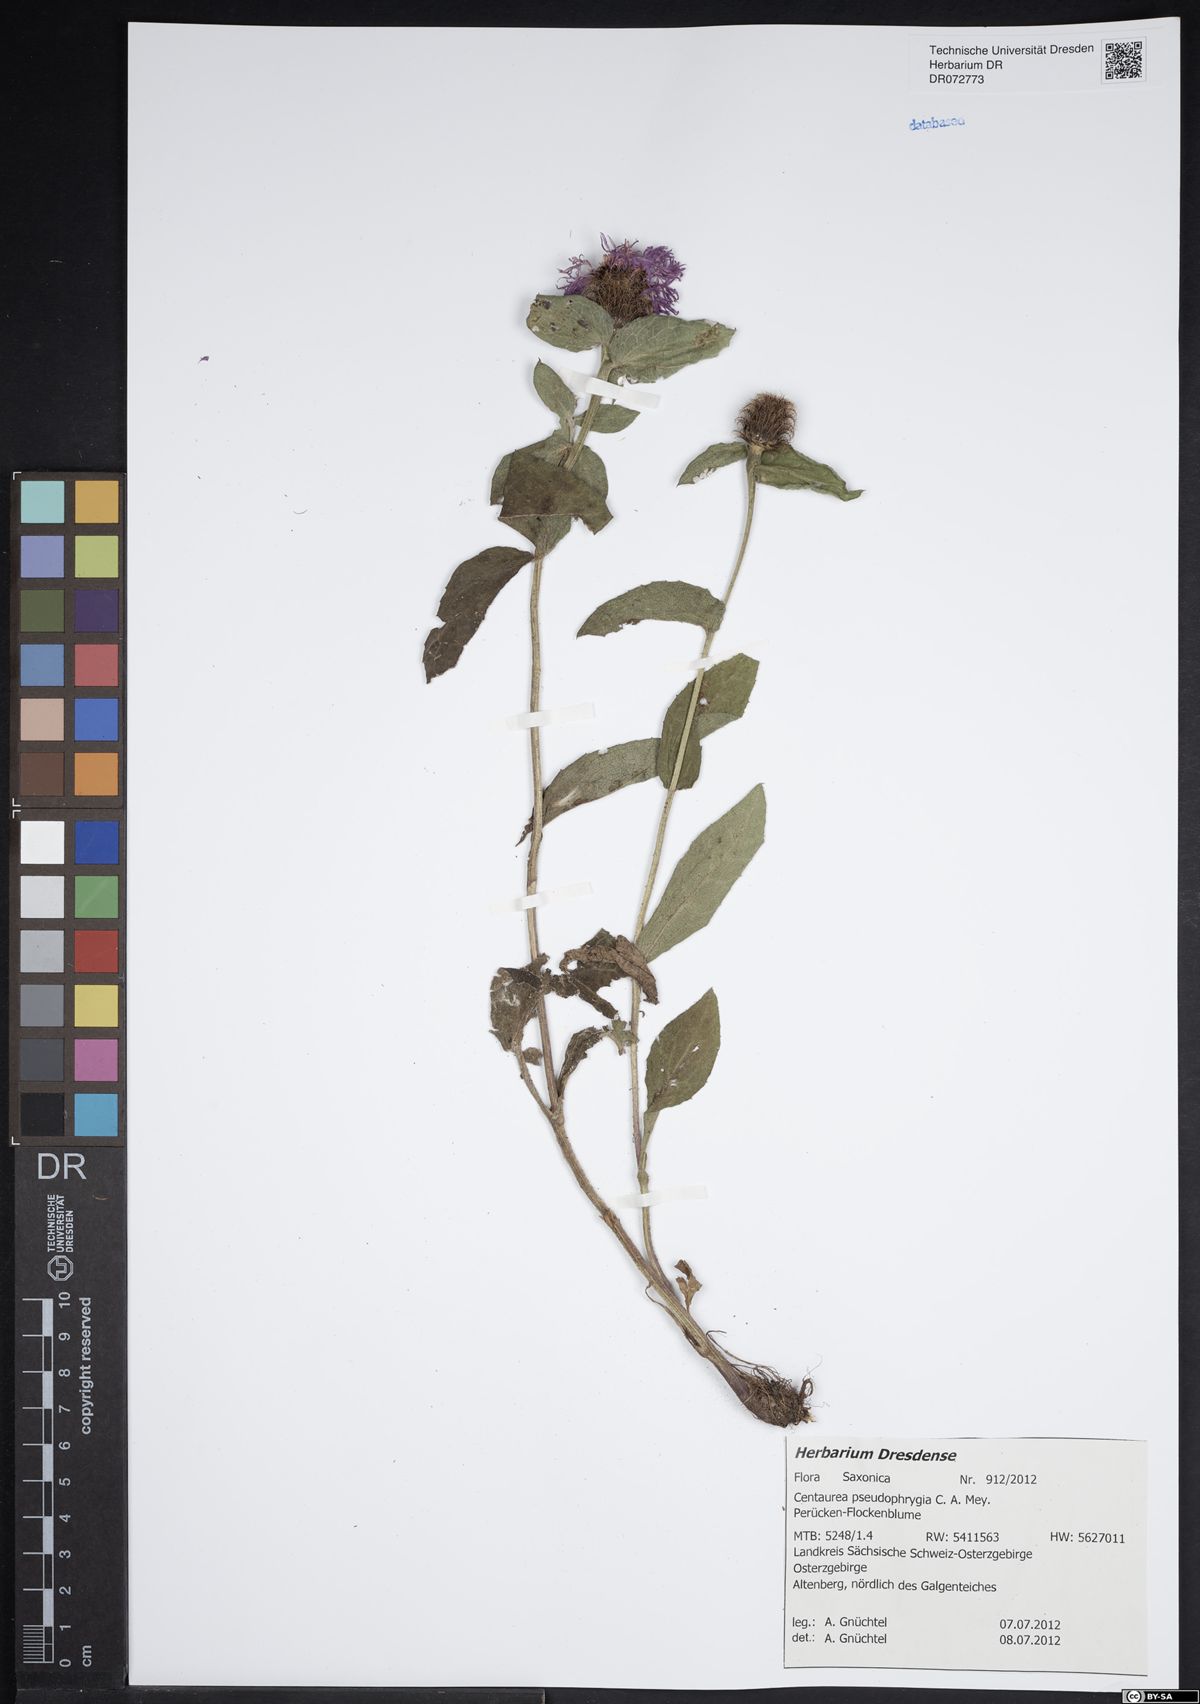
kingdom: Plantae
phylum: Tracheophyta
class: Magnoliopsida
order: Asterales
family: Asteraceae
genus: Centaurea
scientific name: Centaurea pseudophrygia
